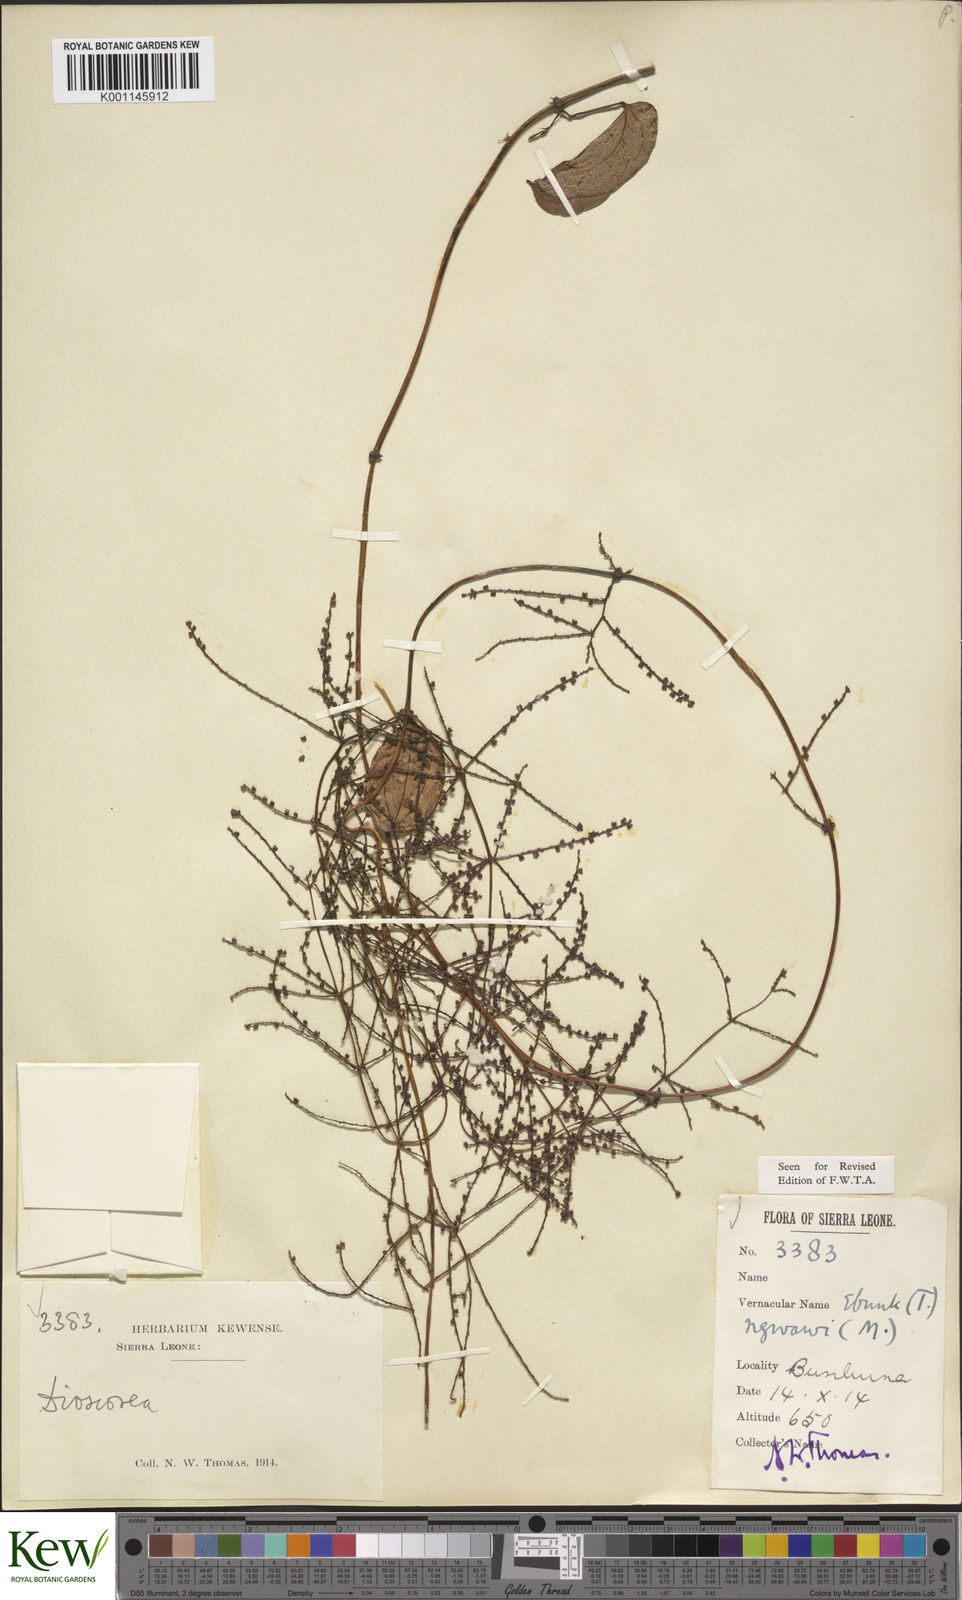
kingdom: Plantae
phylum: Tracheophyta
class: Liliopsida
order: Dioscoreales
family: Dioscoreaceae
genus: Dioscorea
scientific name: Dioscorea togoensis
